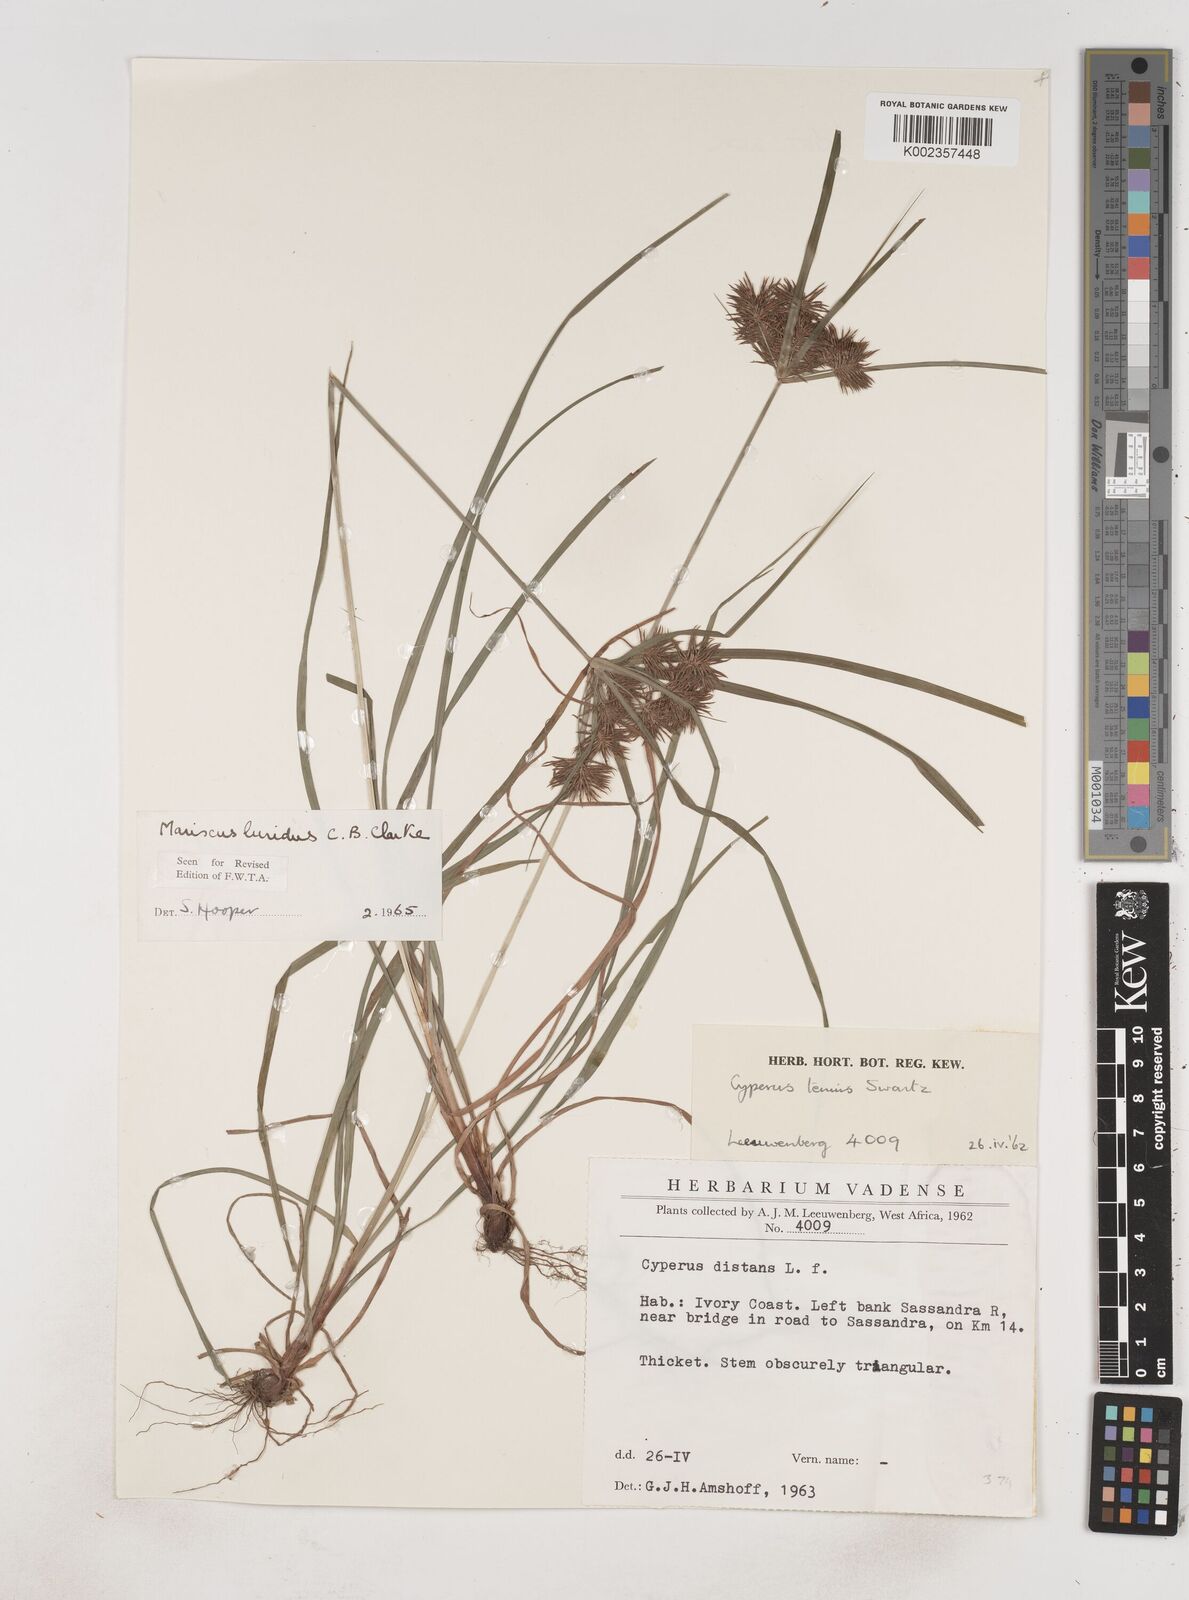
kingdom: Plantae
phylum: Tracheophyta
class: Liliopsida
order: Poales
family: Cyperaceae
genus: Cyperus
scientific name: Cyperus malabaricus
